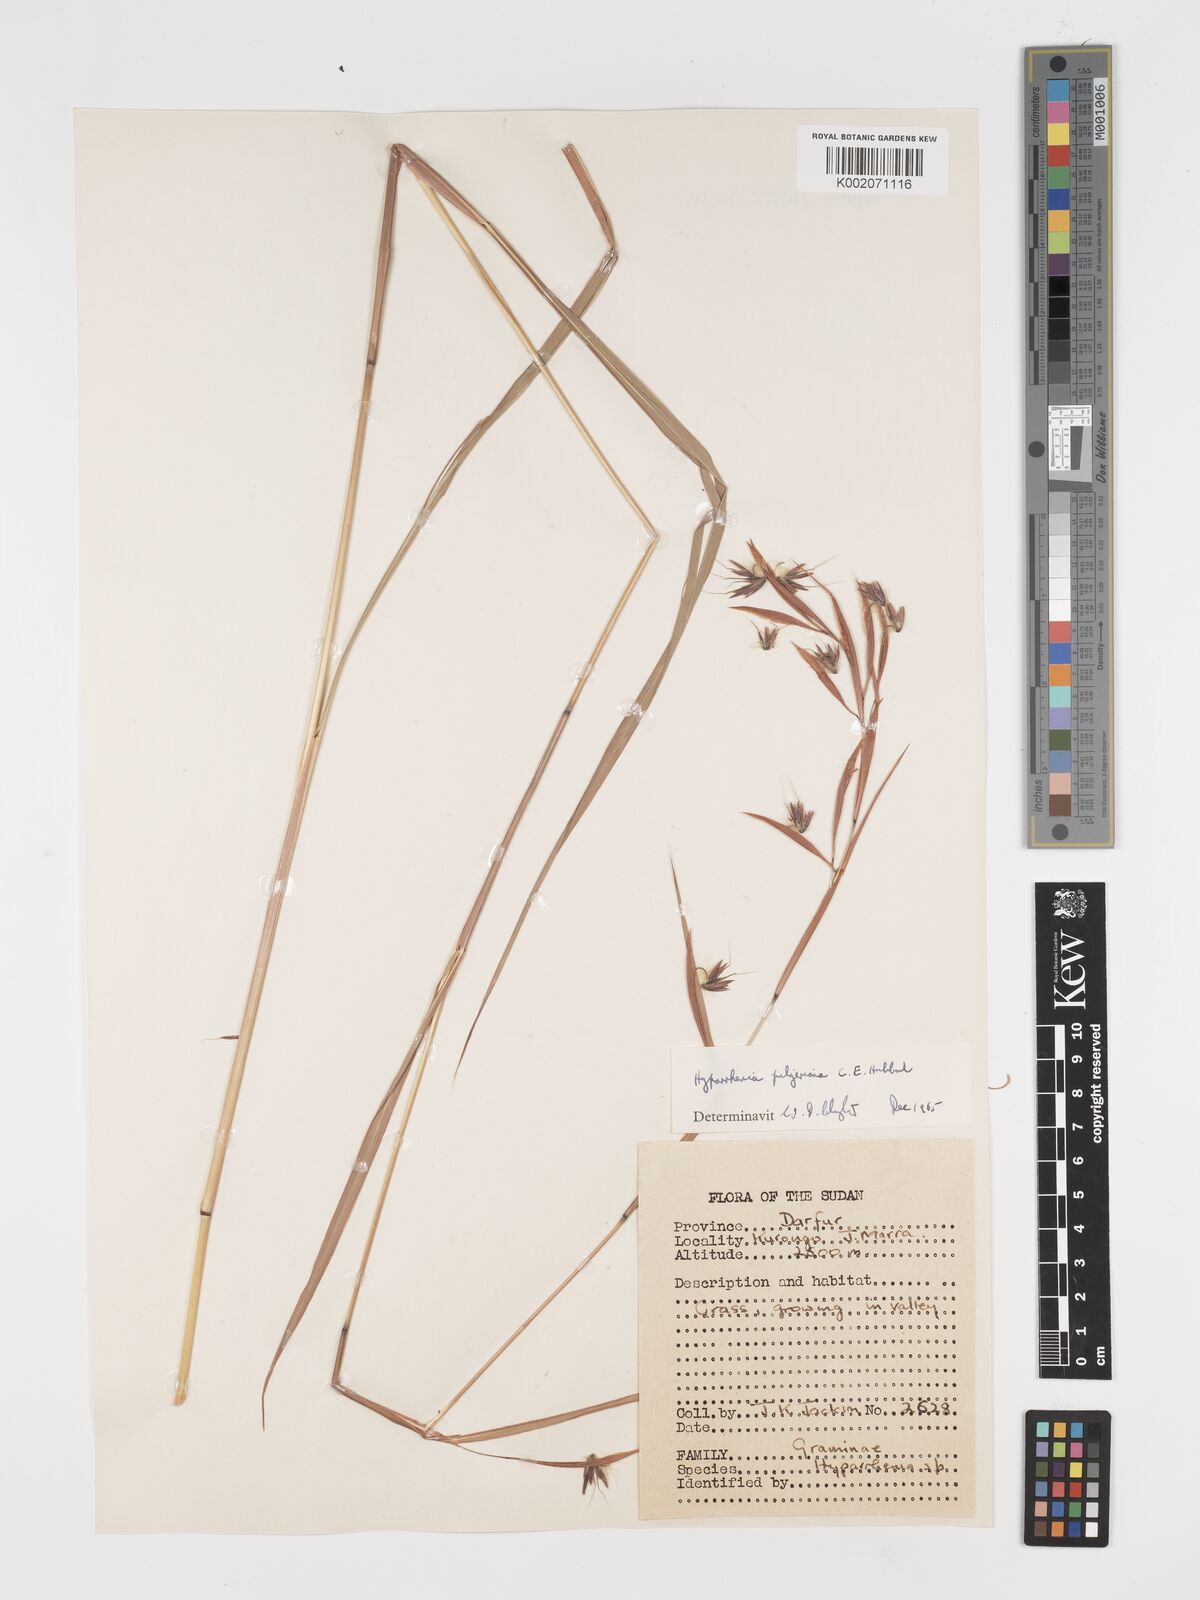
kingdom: Plantae
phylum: Tracheophyta
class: Liliopsida
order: Poales
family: Poaceae
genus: Hyparrhenia
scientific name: Hyparrhenia pilgeriana
